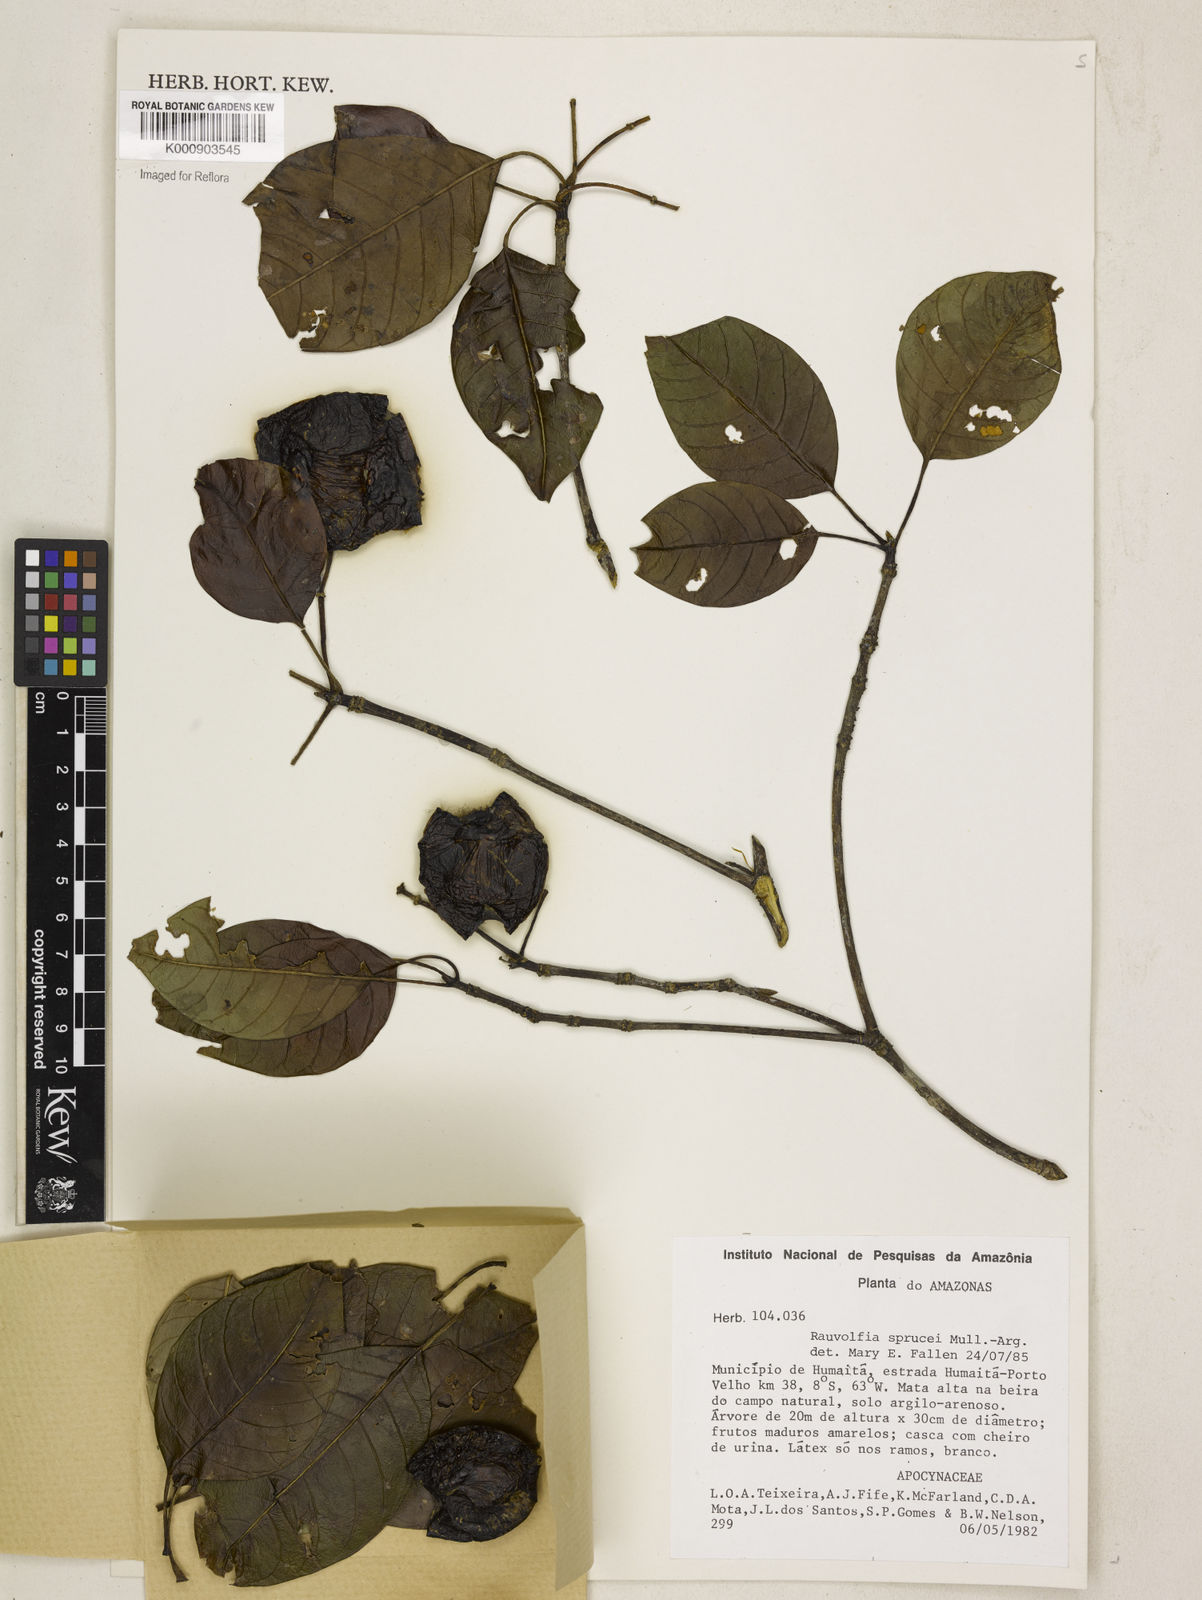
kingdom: Plantae
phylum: Tracheophyta
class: Magnoliopsida
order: Gentianales
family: Apocynaceae
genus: Rauvolfia
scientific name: Rauvolfia
